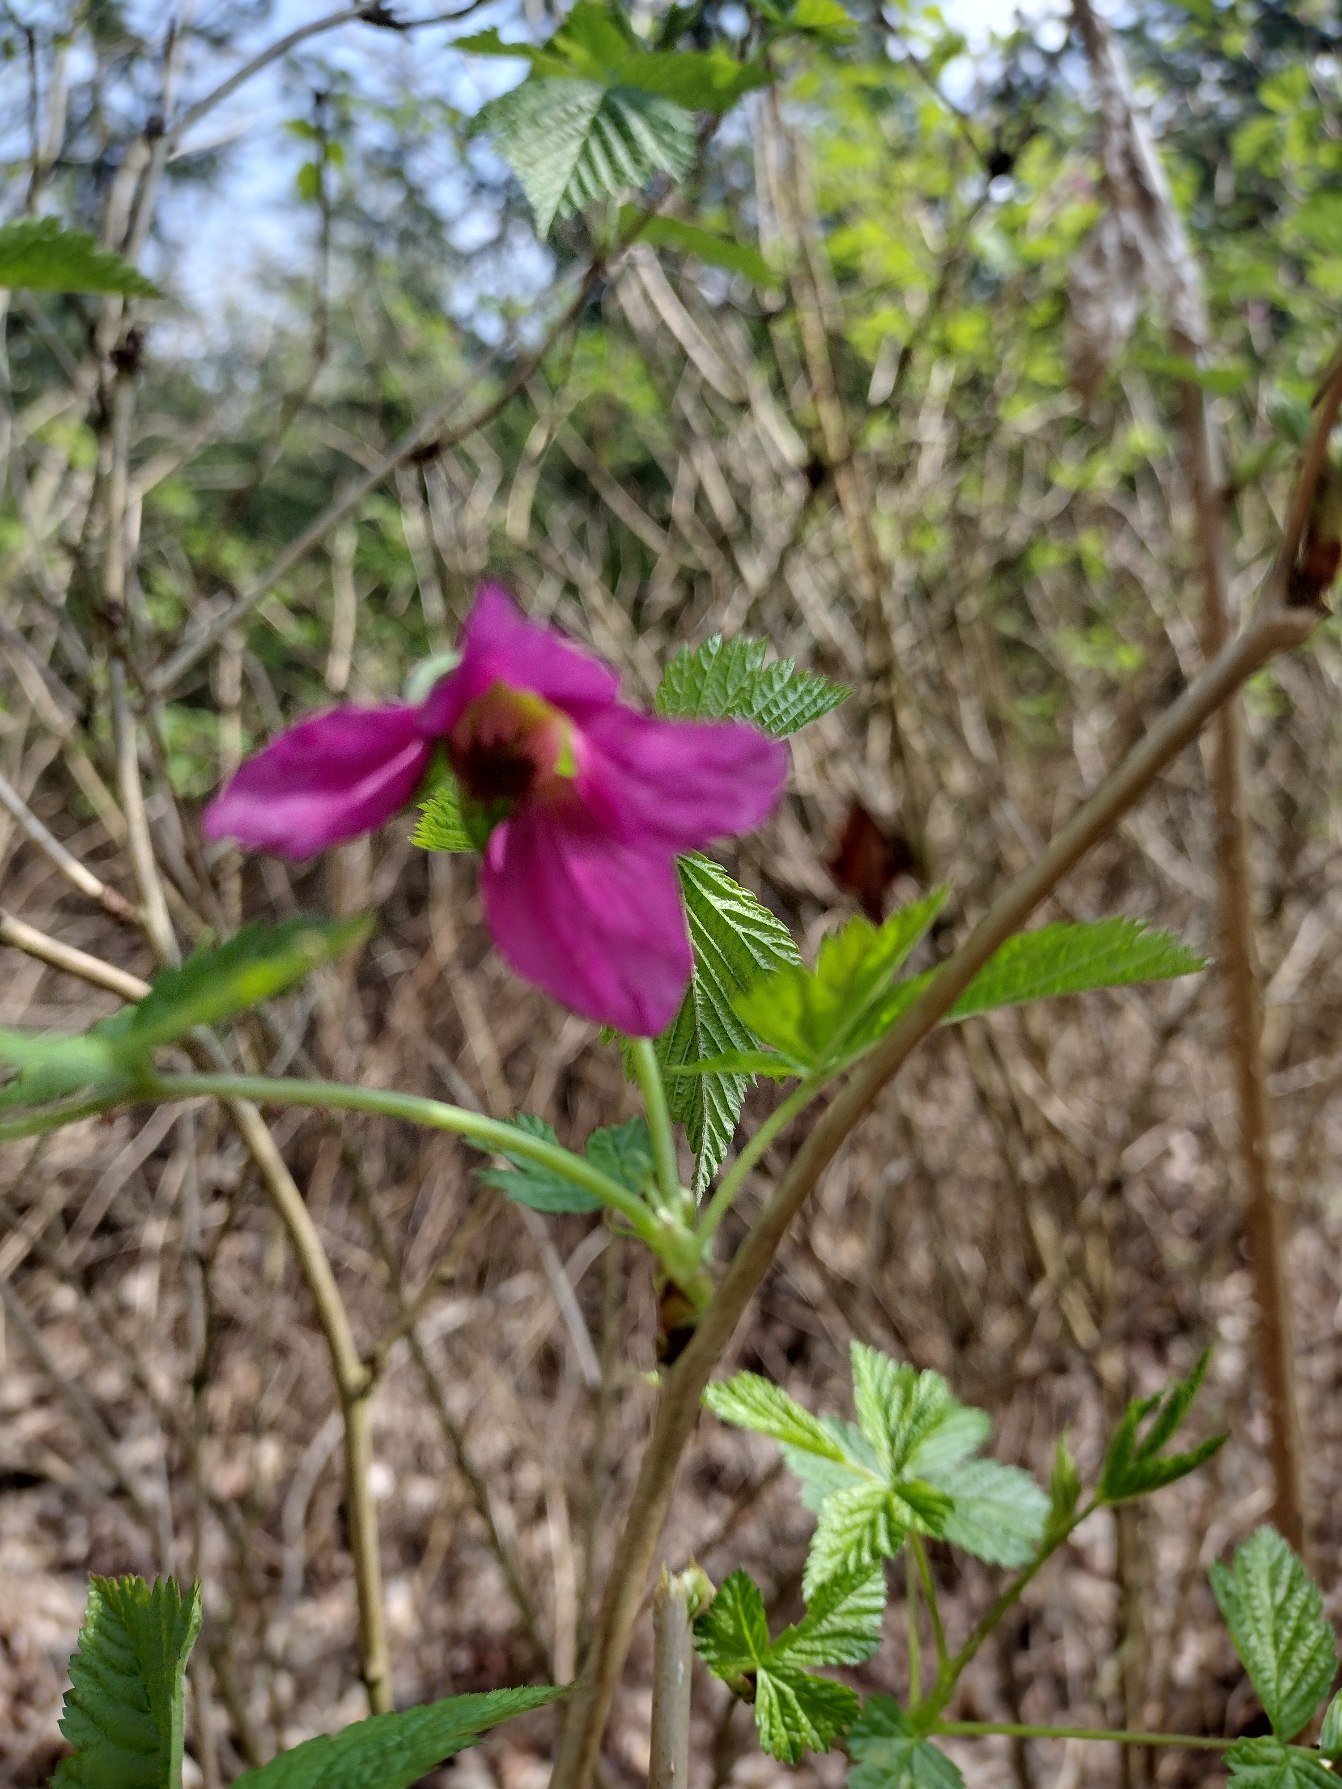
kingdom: Plantae
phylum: Tracheophyta
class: Magnoliopsida
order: Rosales
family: Rosaceae
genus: Rubus
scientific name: Rubus spectabilis
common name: Laksebær
